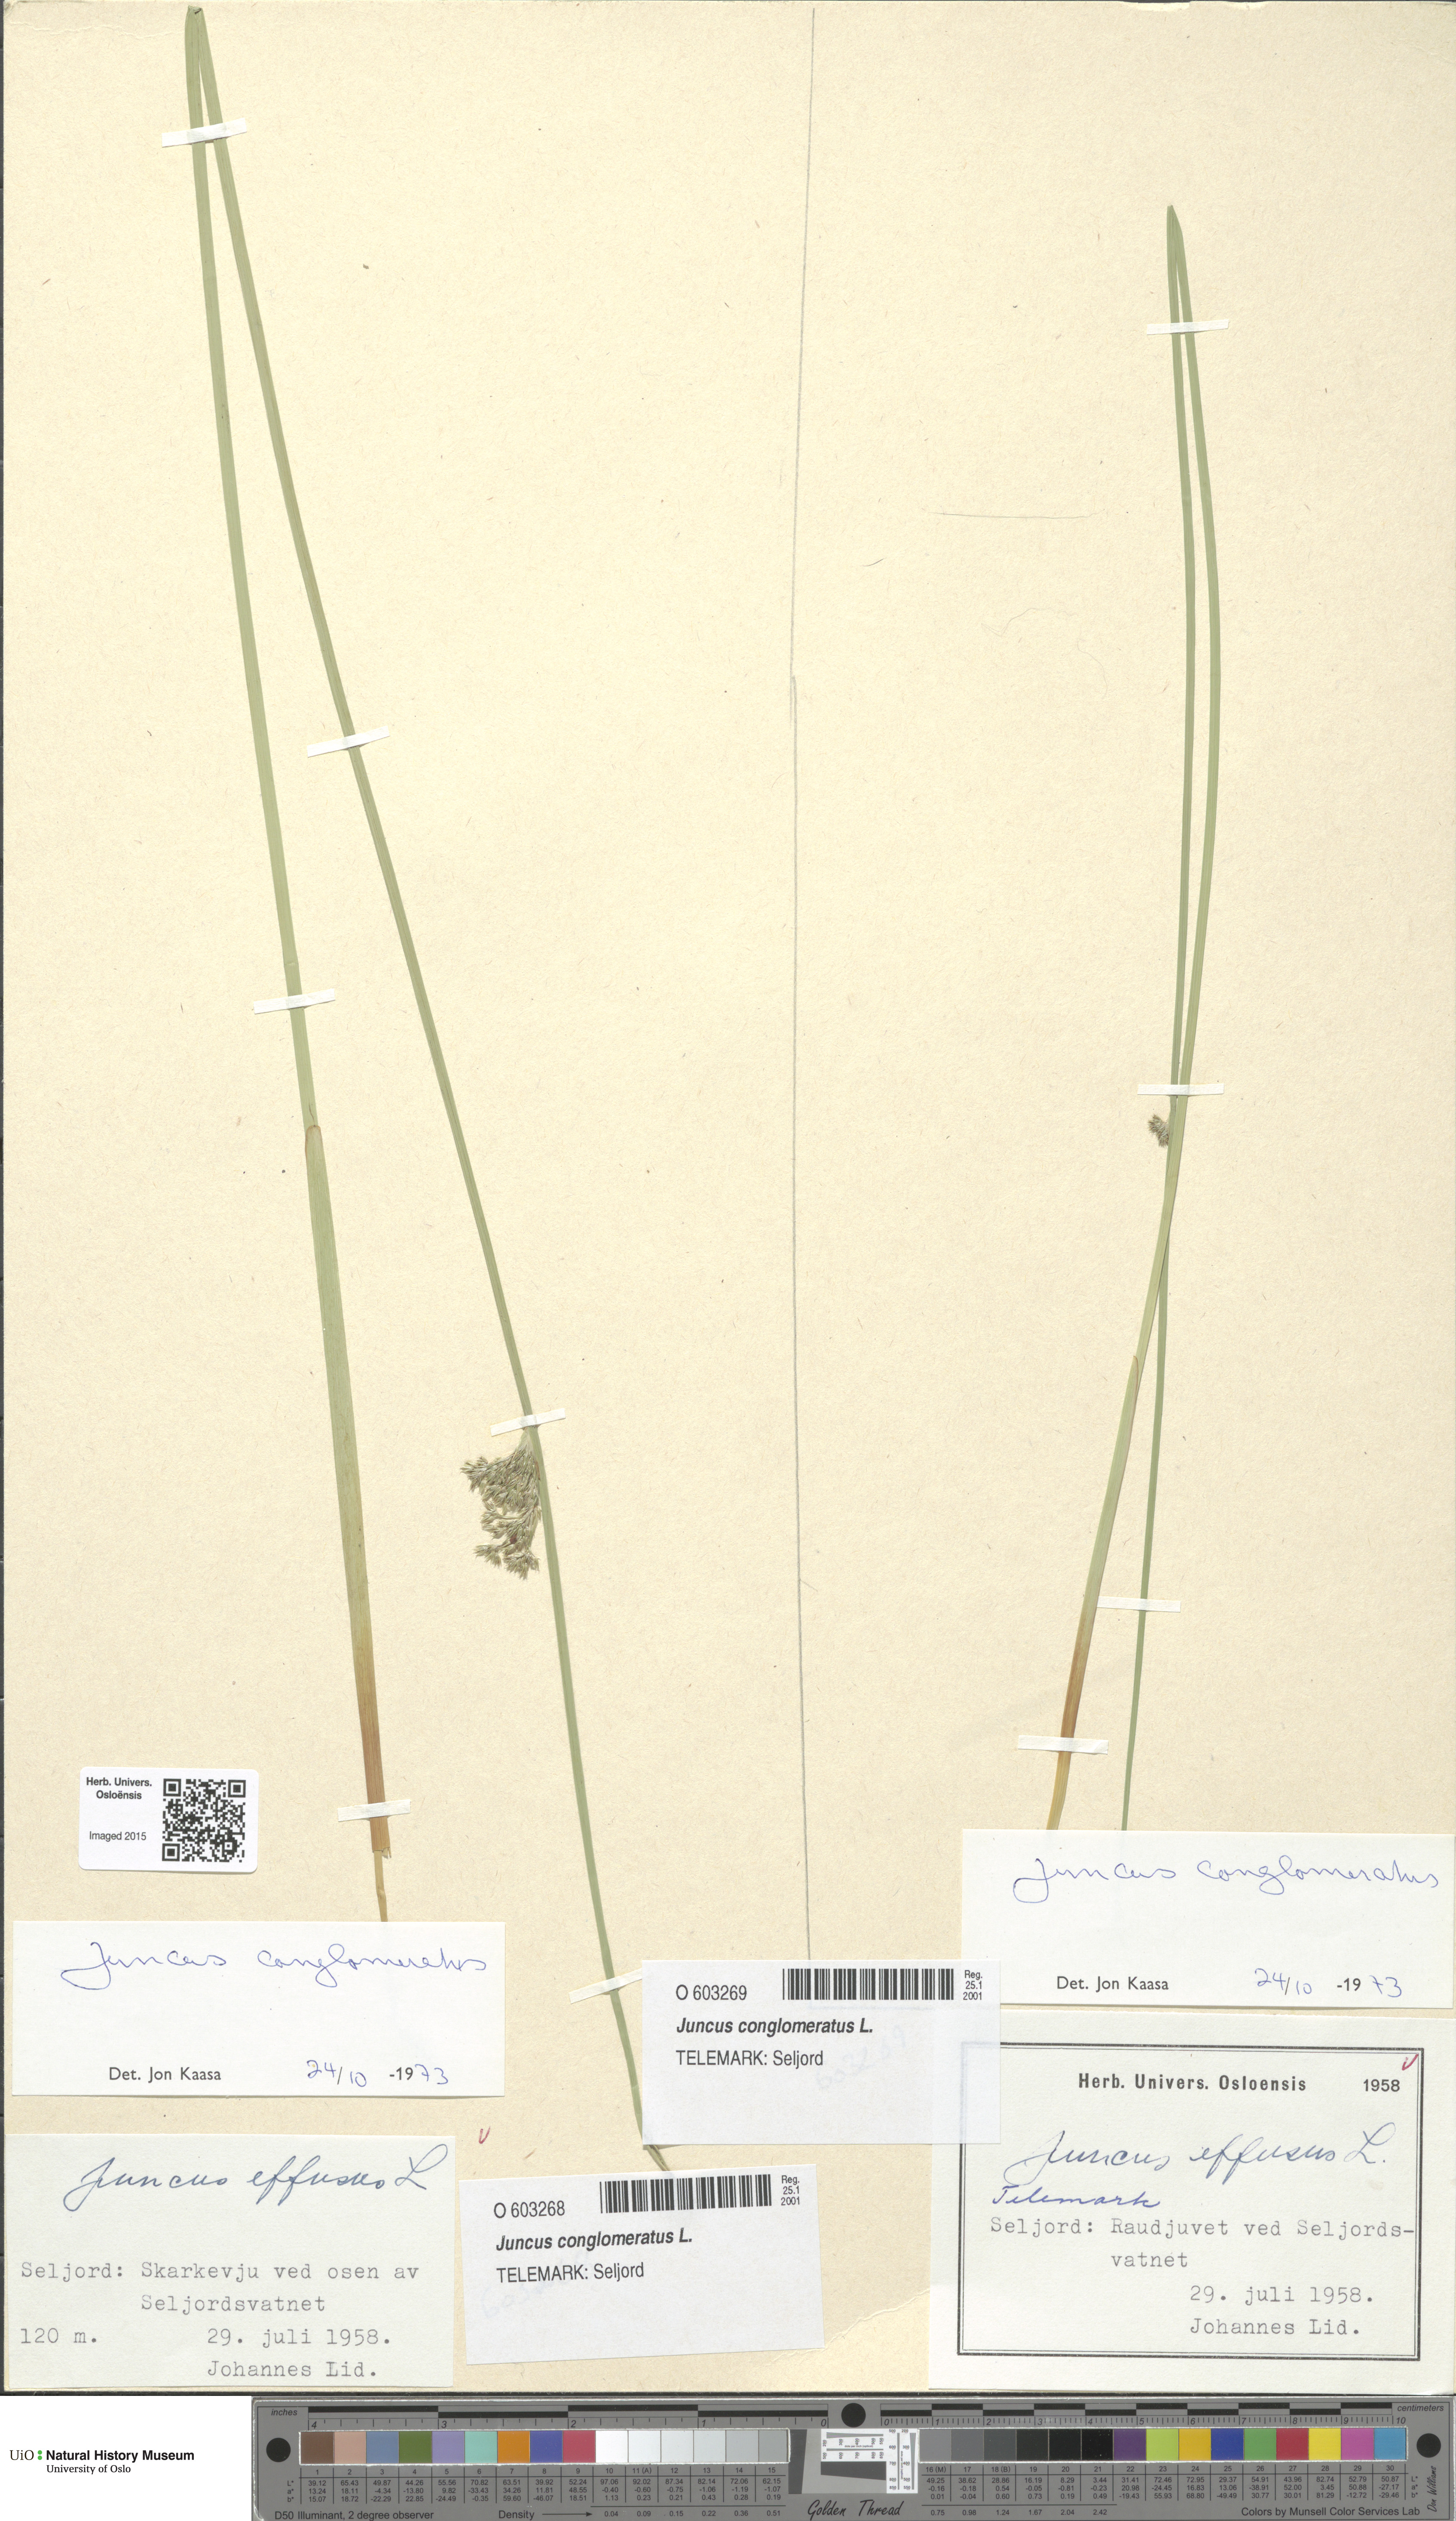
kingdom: Plantae
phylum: Tracheophyta
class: Liliopsida
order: Poales
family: Juncaceae
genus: Juncus
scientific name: Juncus conglomeratus
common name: Compact rush
